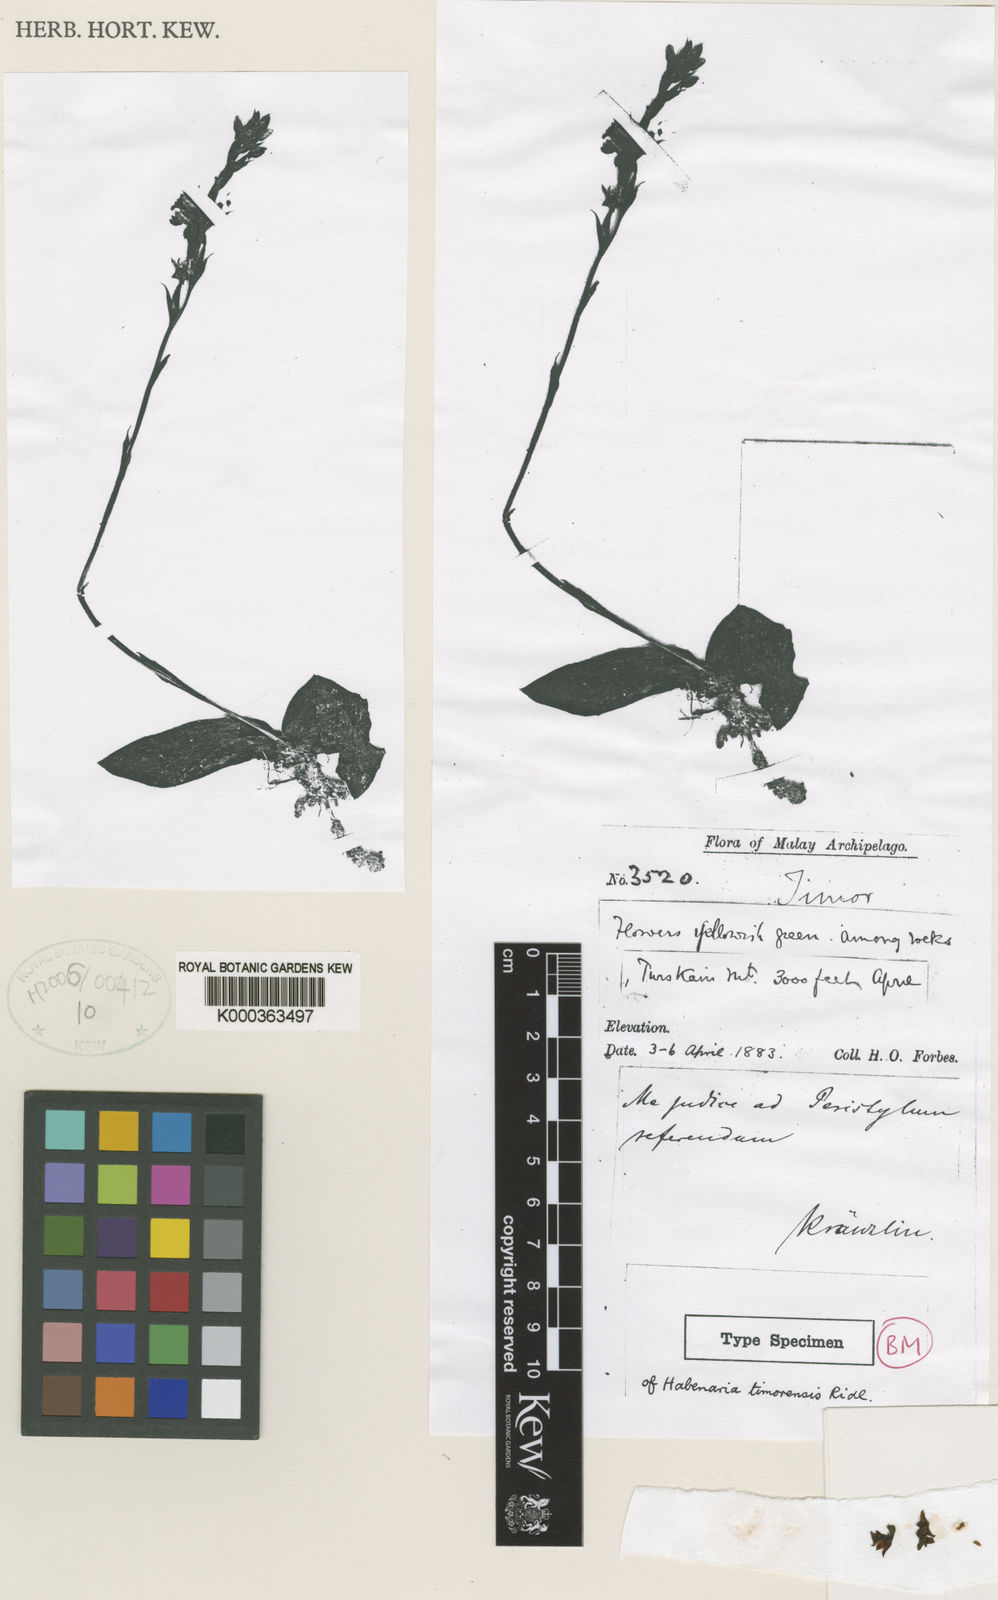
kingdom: Plantae
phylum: Tracheophyta
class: Liliopsida
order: Asparagales
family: Orchidaceae
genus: Peristylus
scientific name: Peristylus timorensis
